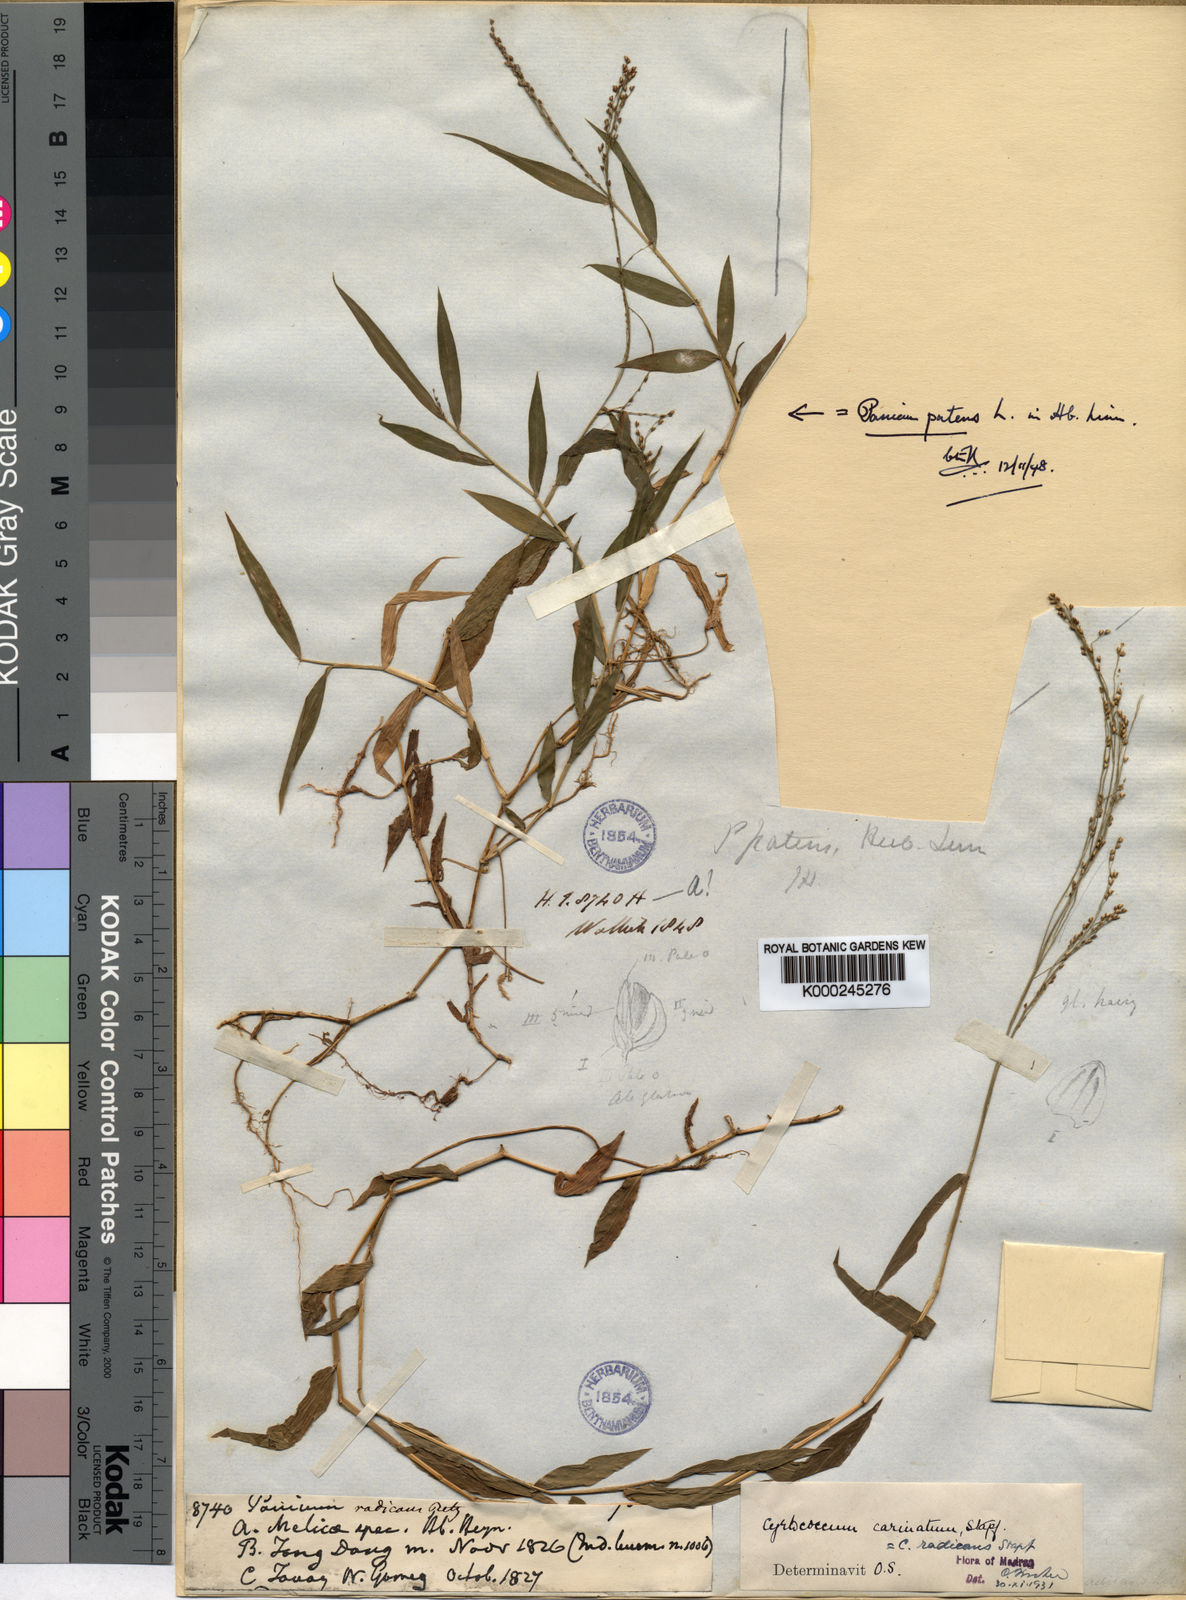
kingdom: Plantae
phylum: Tracheophyta
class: Liliopsida
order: Poales
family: Poaceae
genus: Cyrtococcum
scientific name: Cyrtococcum patens
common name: Broad-leaved bowgrass
